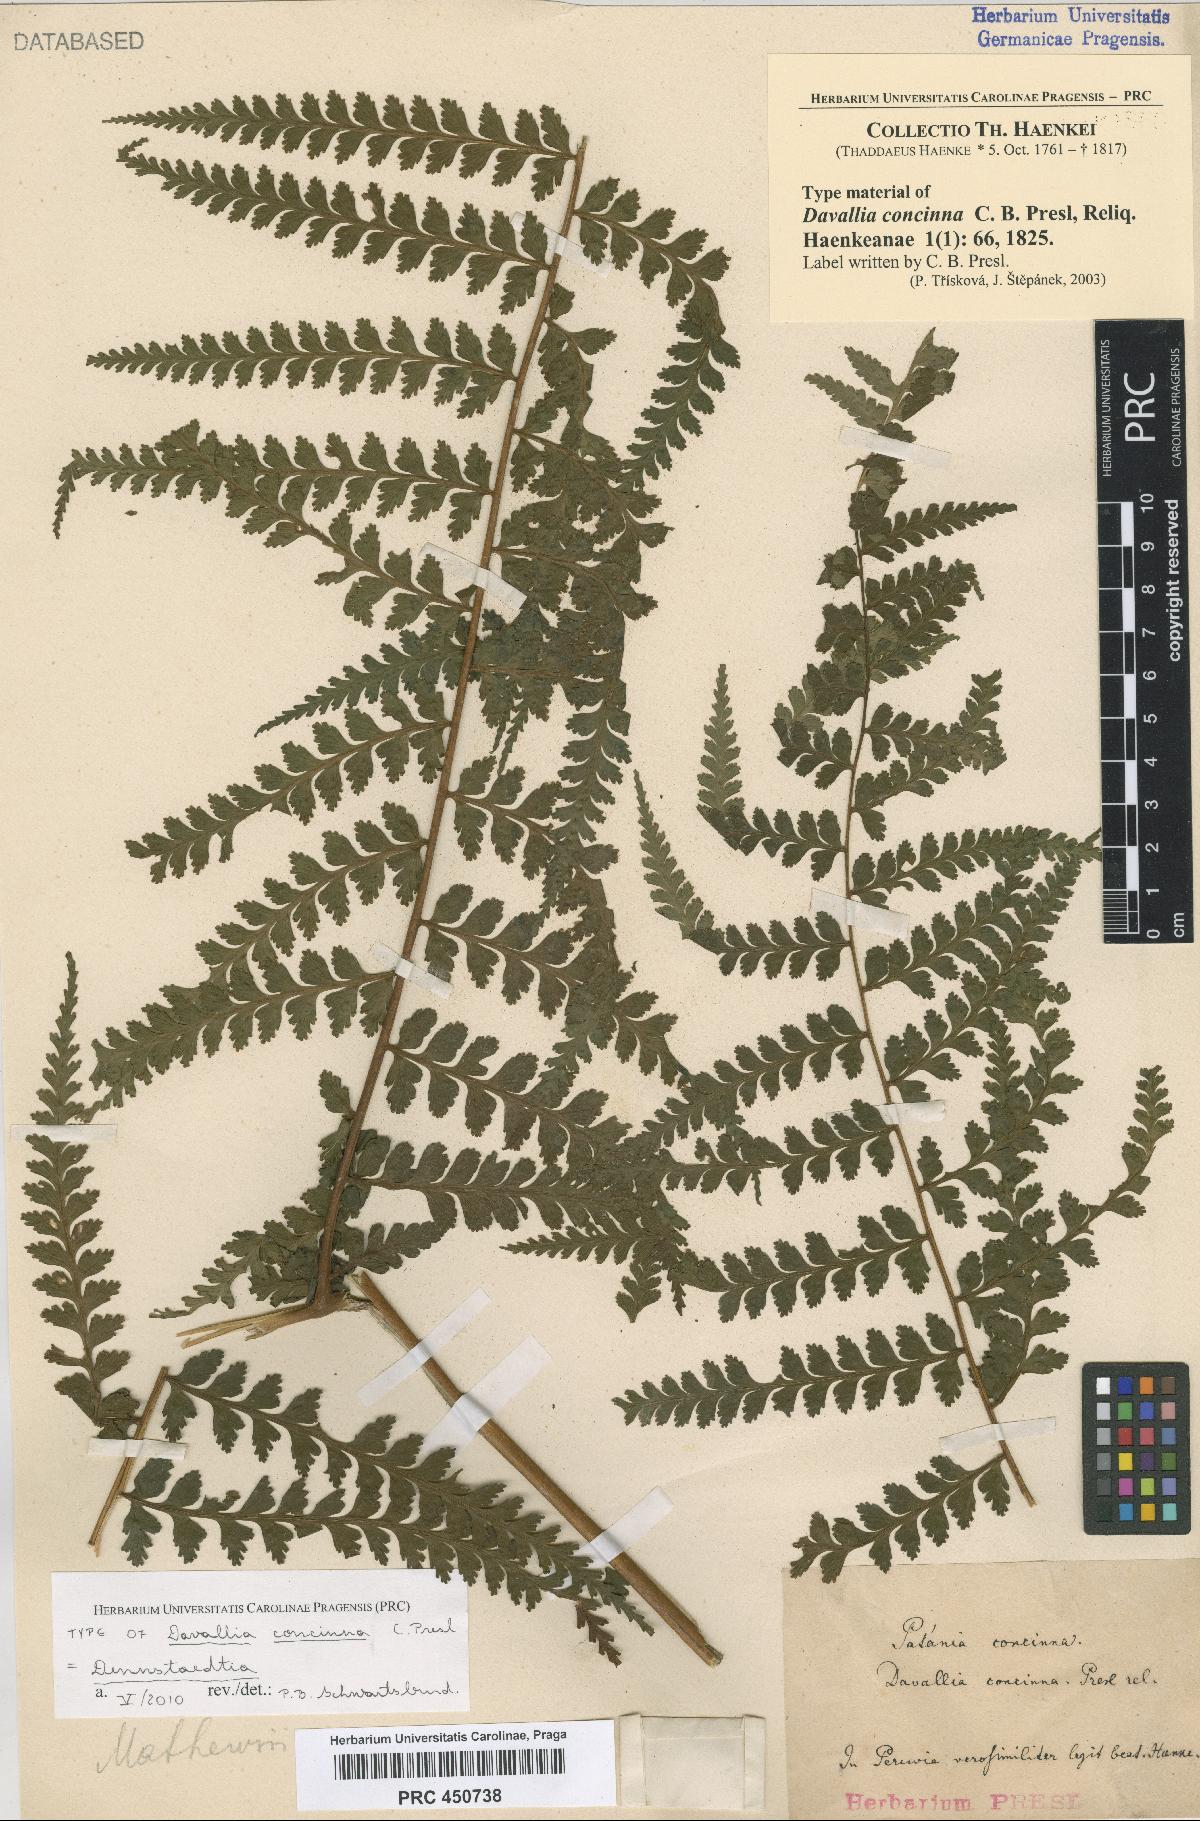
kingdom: Plantae
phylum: Tracheophyta
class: Polypodiopsida
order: Polypodiales
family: Dennstaedtiaceae
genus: Dennstaedtia
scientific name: Dennstaedtia arborescens
